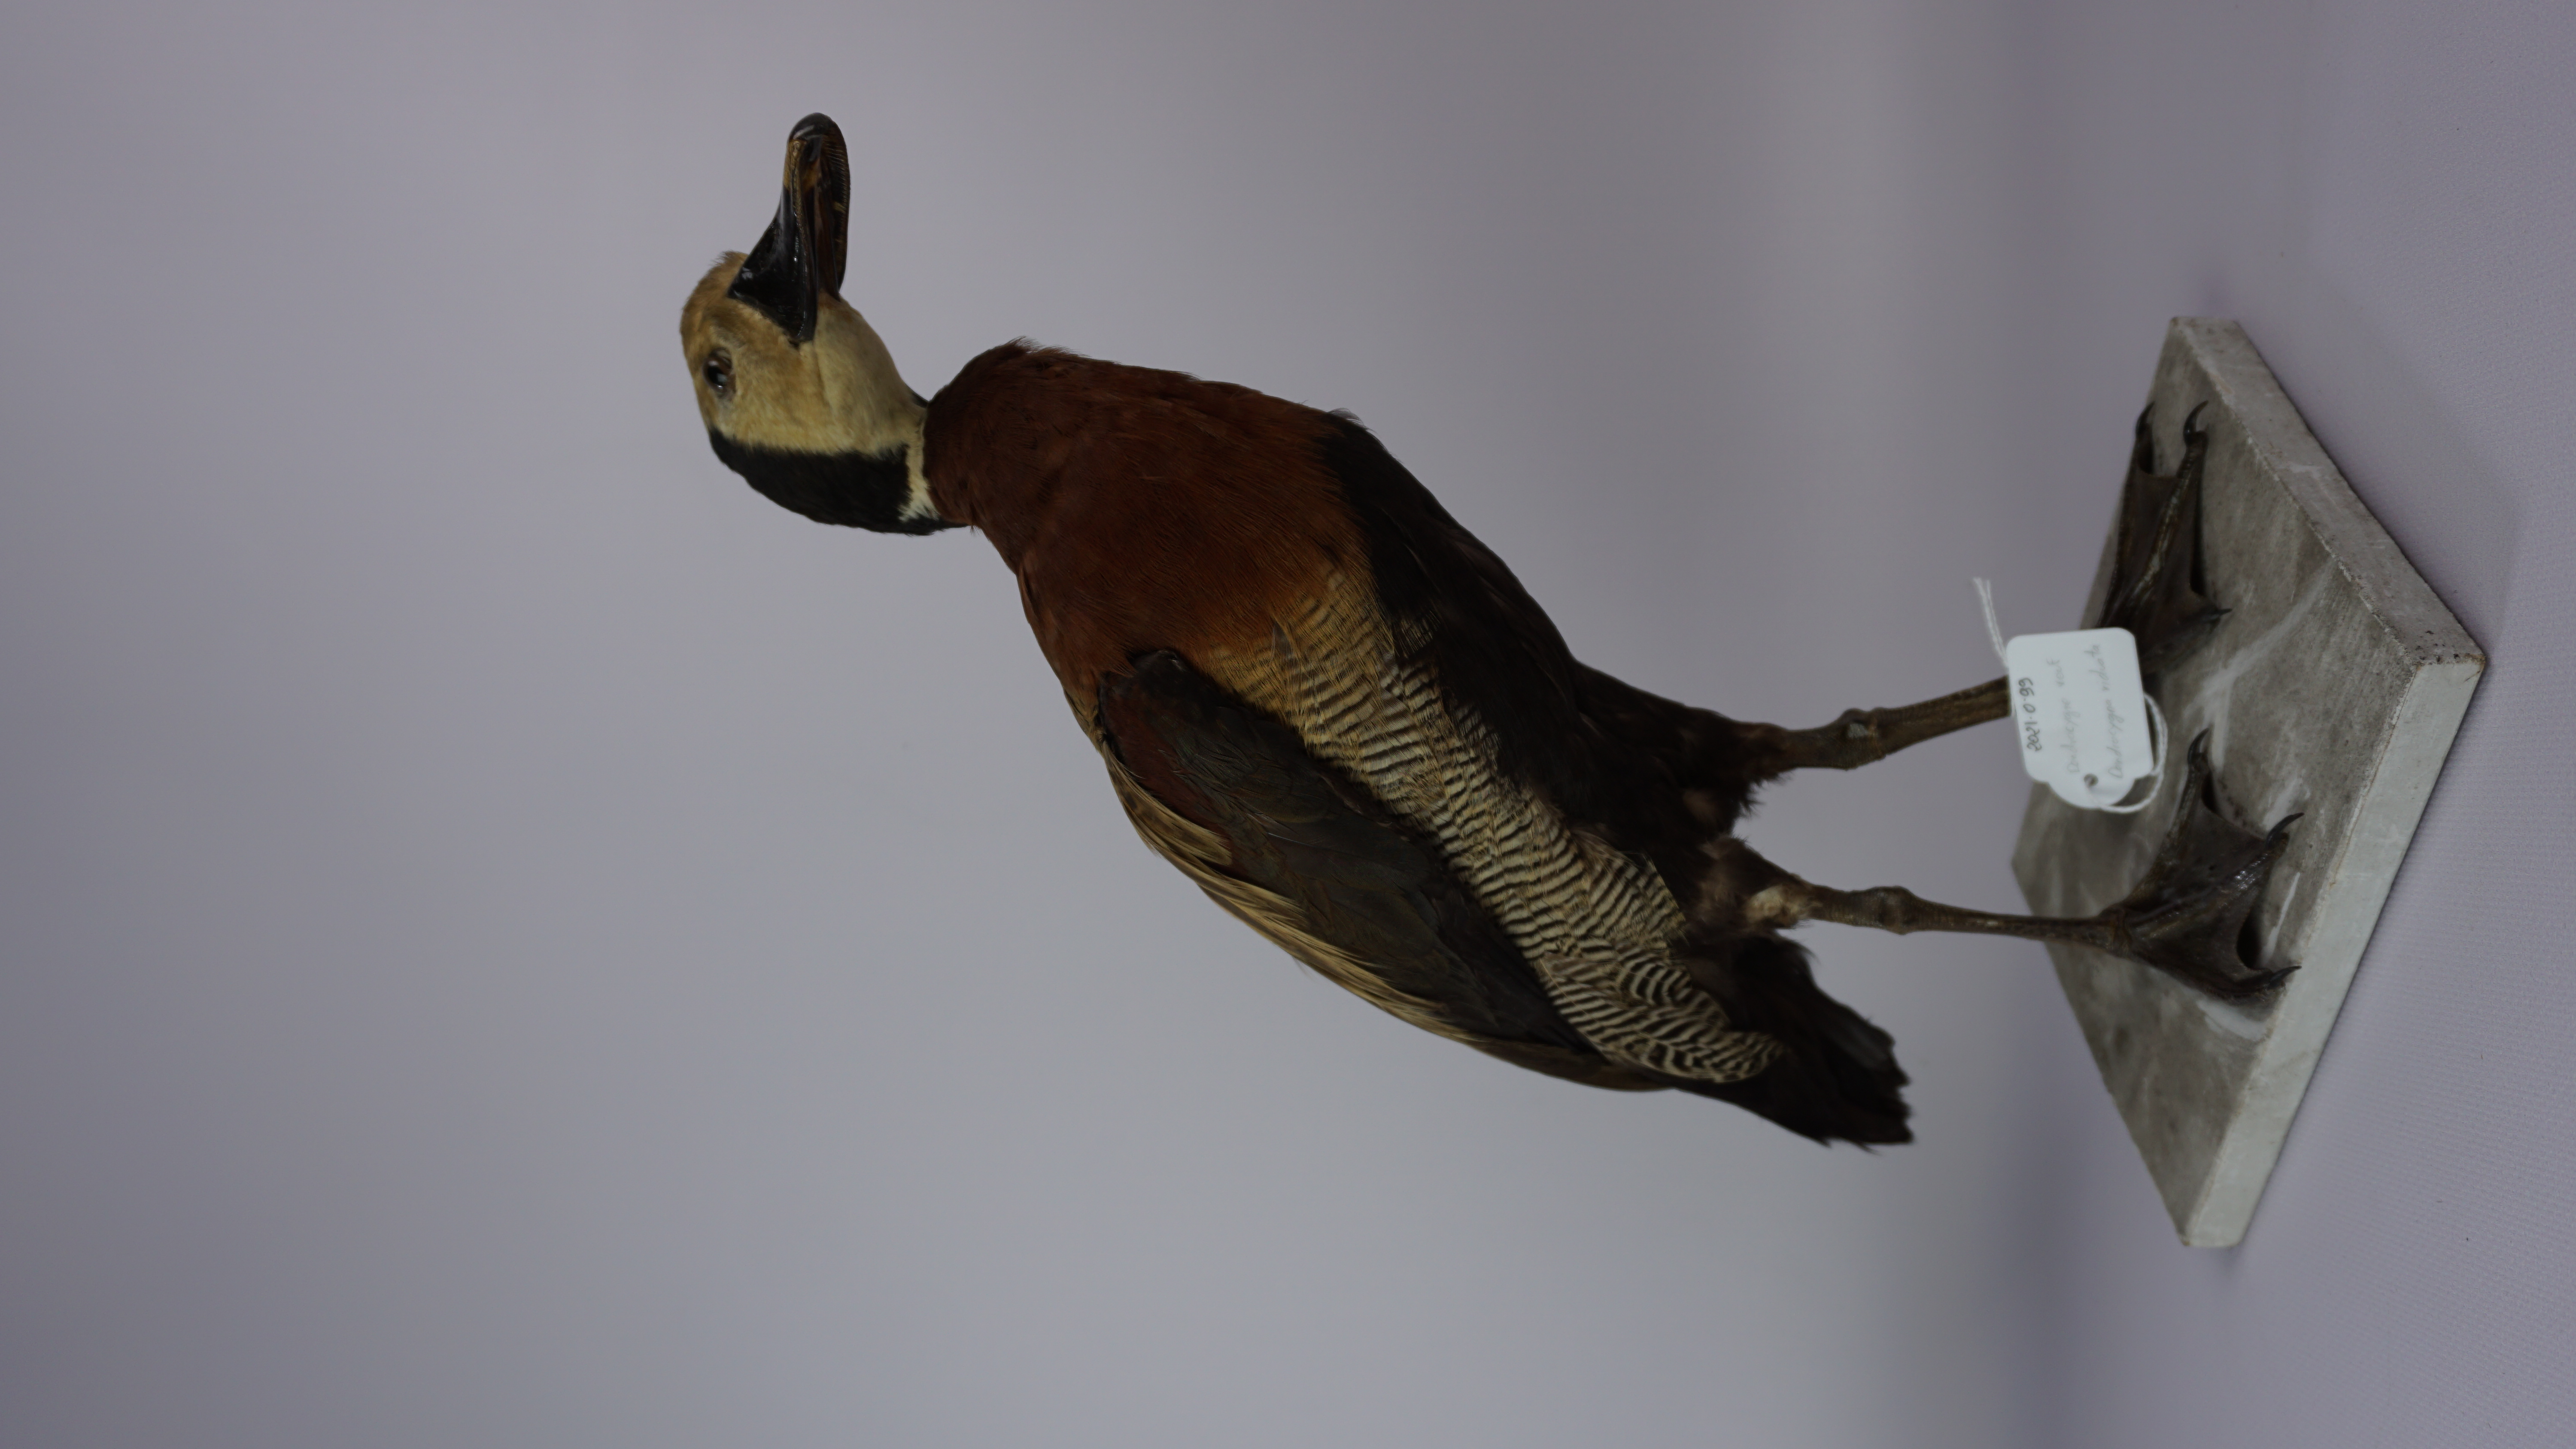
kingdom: Animalia
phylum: Chordata
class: Aves
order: Anseriformes
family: Anatidae
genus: Dendrocygna
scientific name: Dendrocygna viduata
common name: White-faced whistling duck
